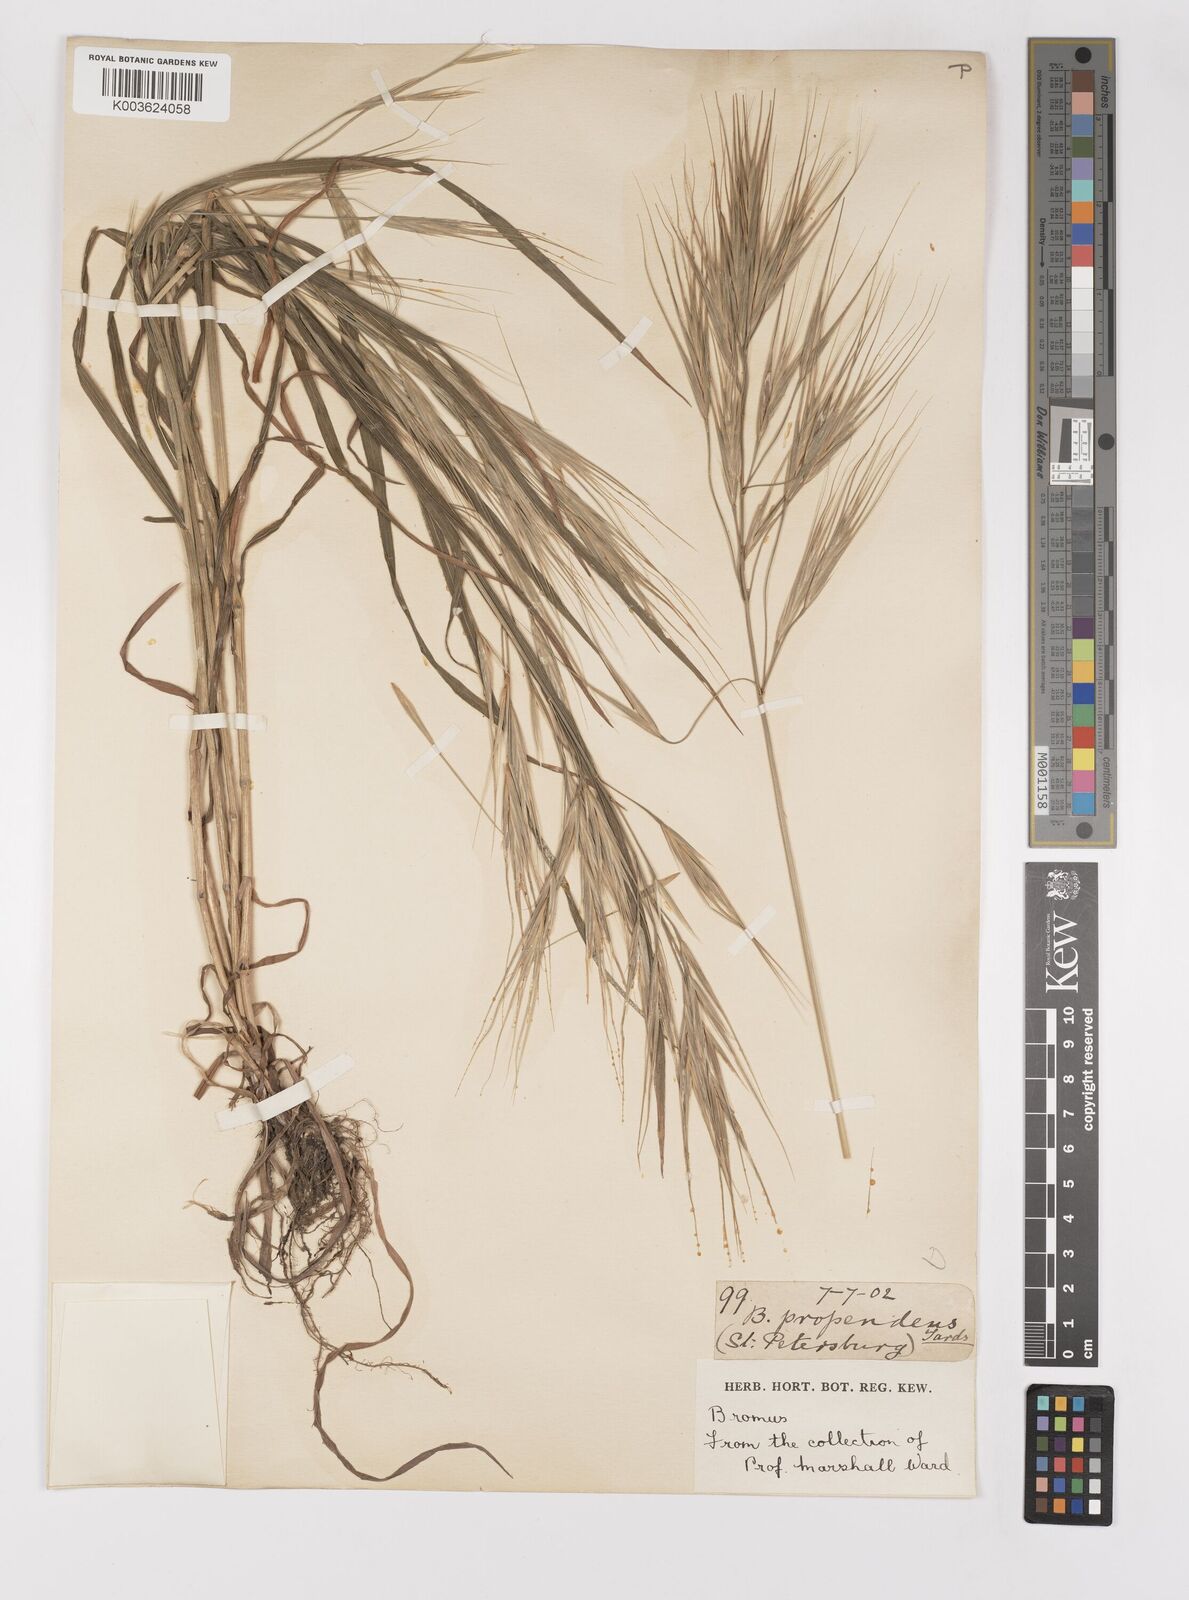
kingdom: Plantae
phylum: Tracheophyta
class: Liliopsida
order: Poales
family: Poaceae
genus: Bromus
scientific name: Bromus diandrus
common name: Ripgut brome
